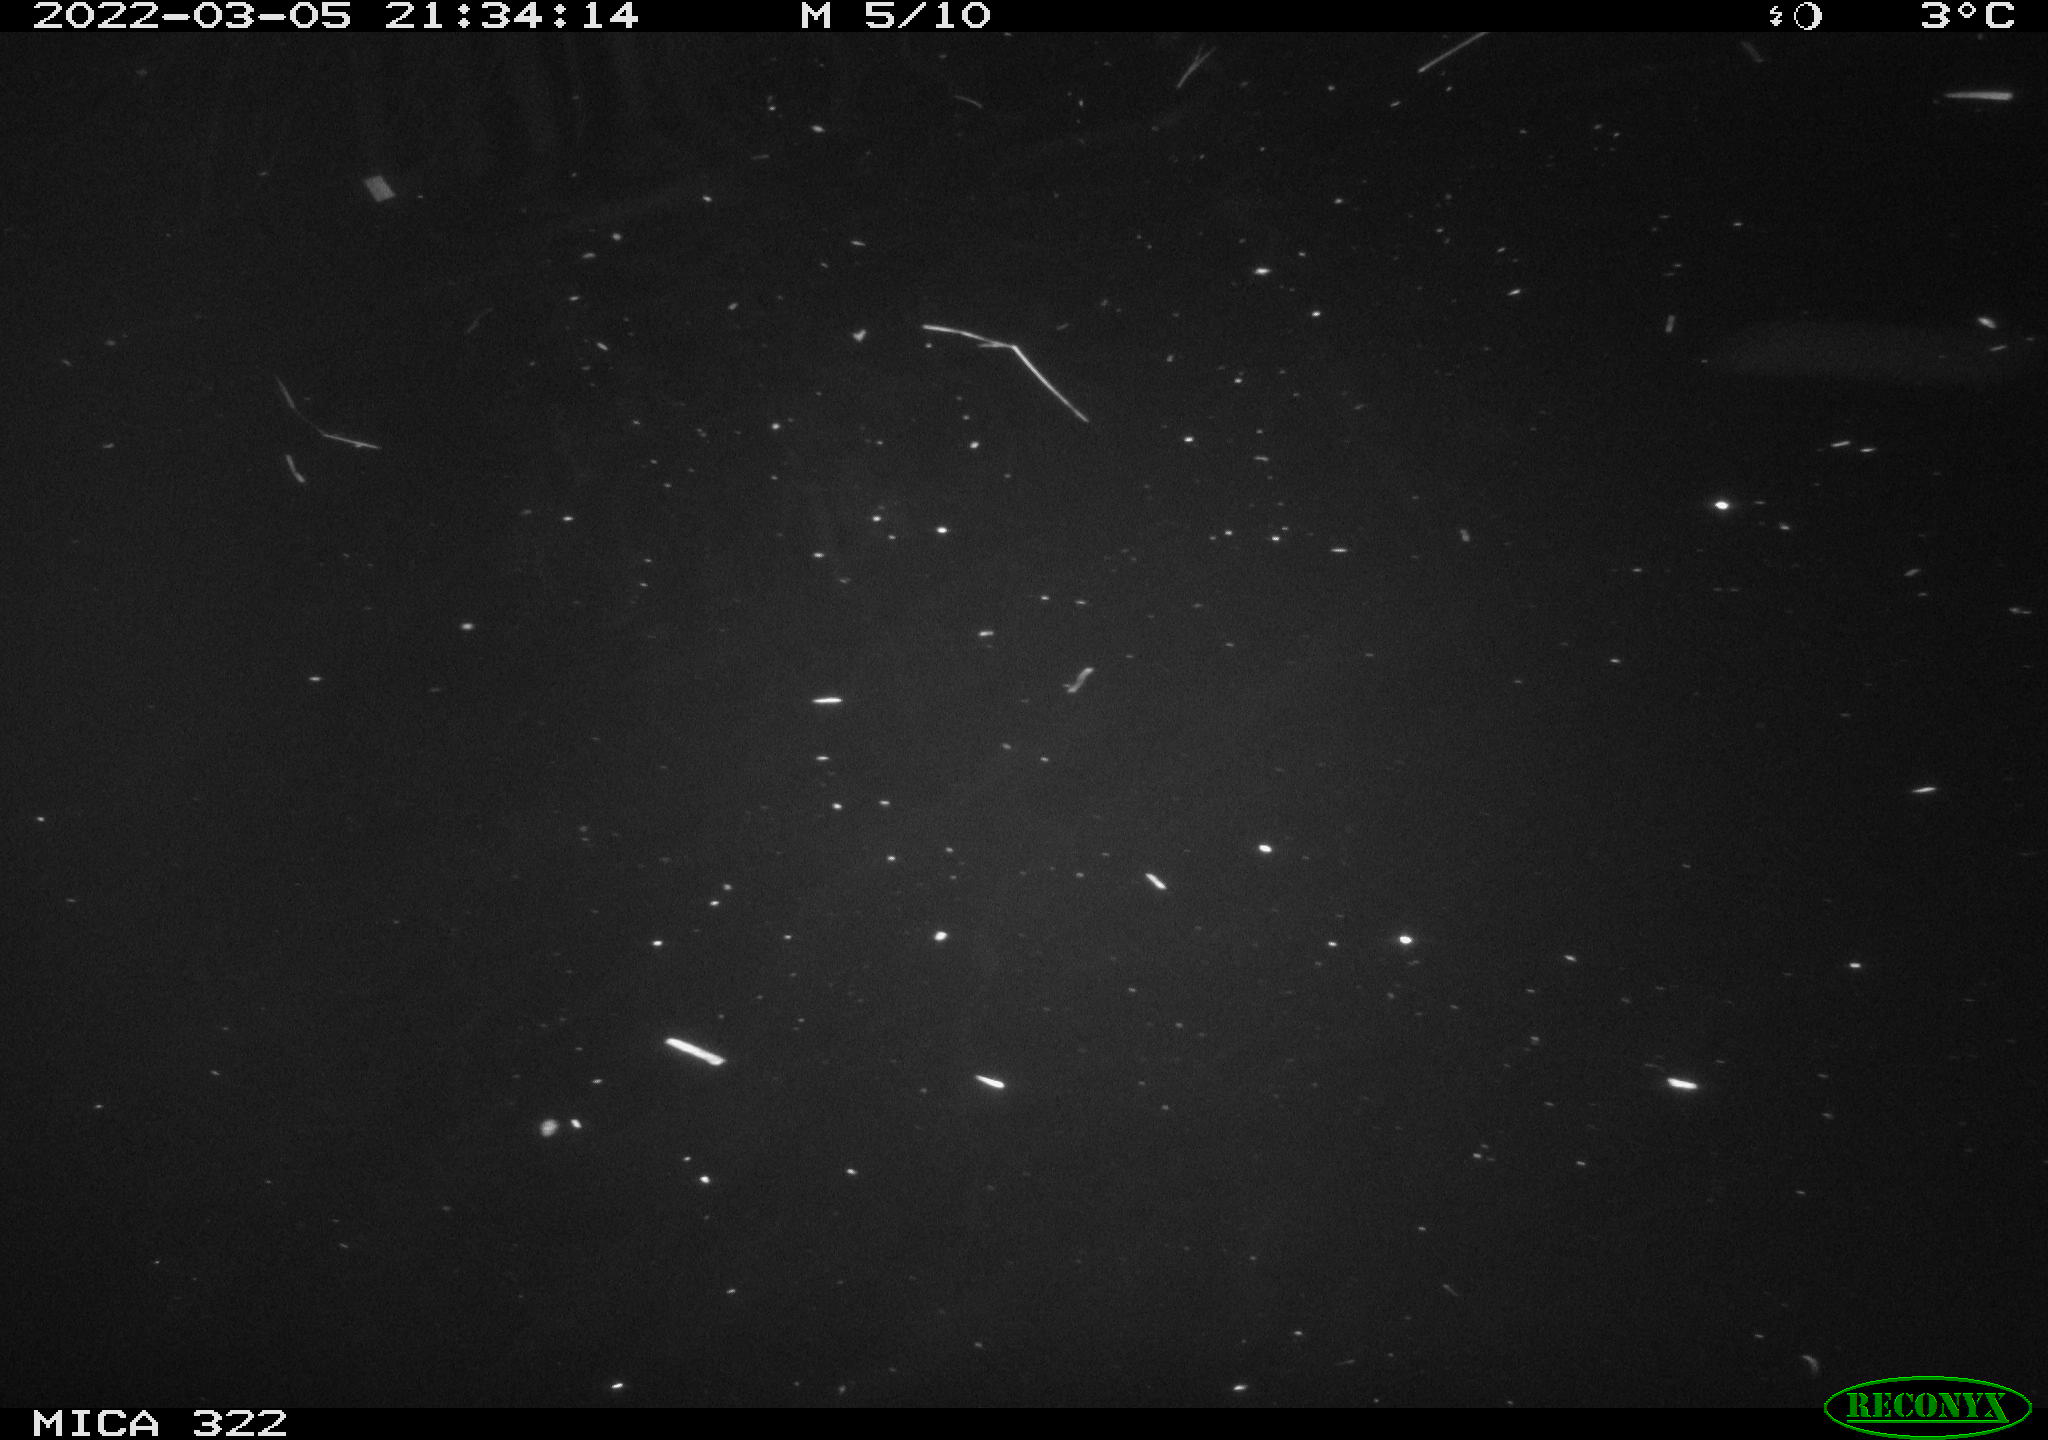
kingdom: Animalia
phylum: Chordata
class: Aves
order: Gruiformes
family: Rallidae
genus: Gallinula
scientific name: Gallinula chloropus
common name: Common moorhen
